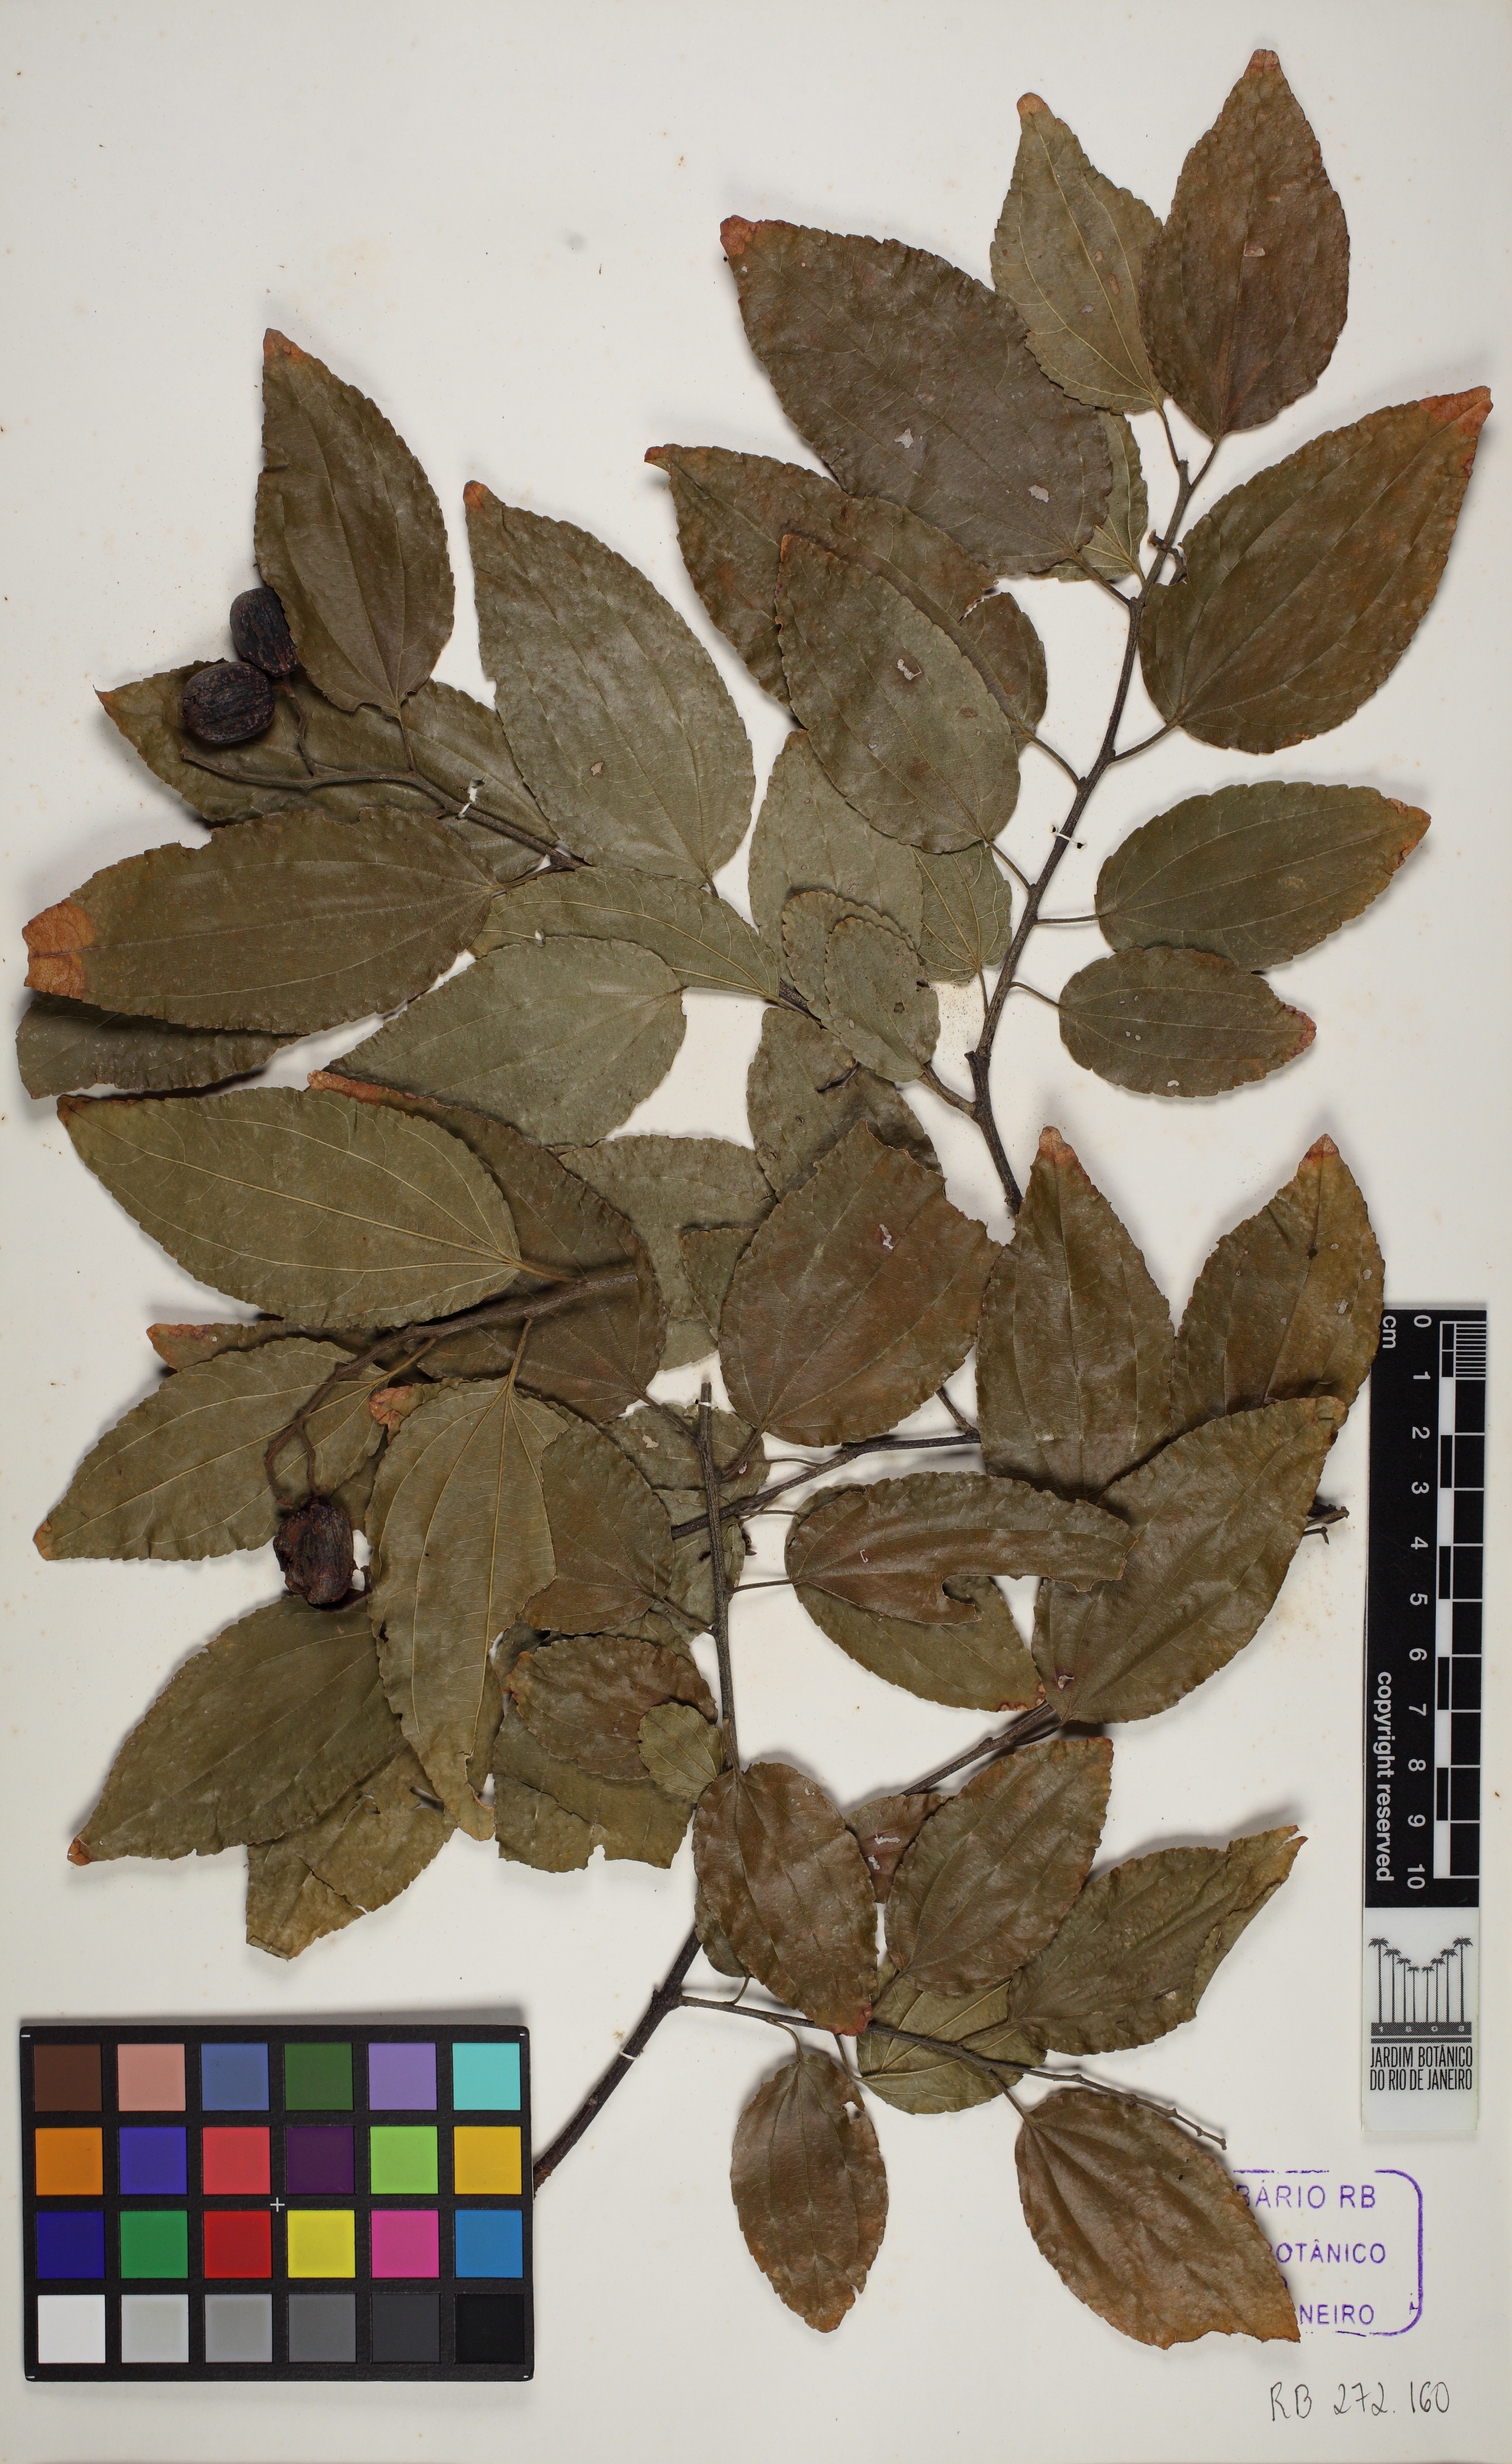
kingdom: Plantae
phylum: Tracheophyta
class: Magnoliopsida
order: Rosales
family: Rhamnaceae
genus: Sarcomphalus
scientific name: Sarcomphalus glaziovii
